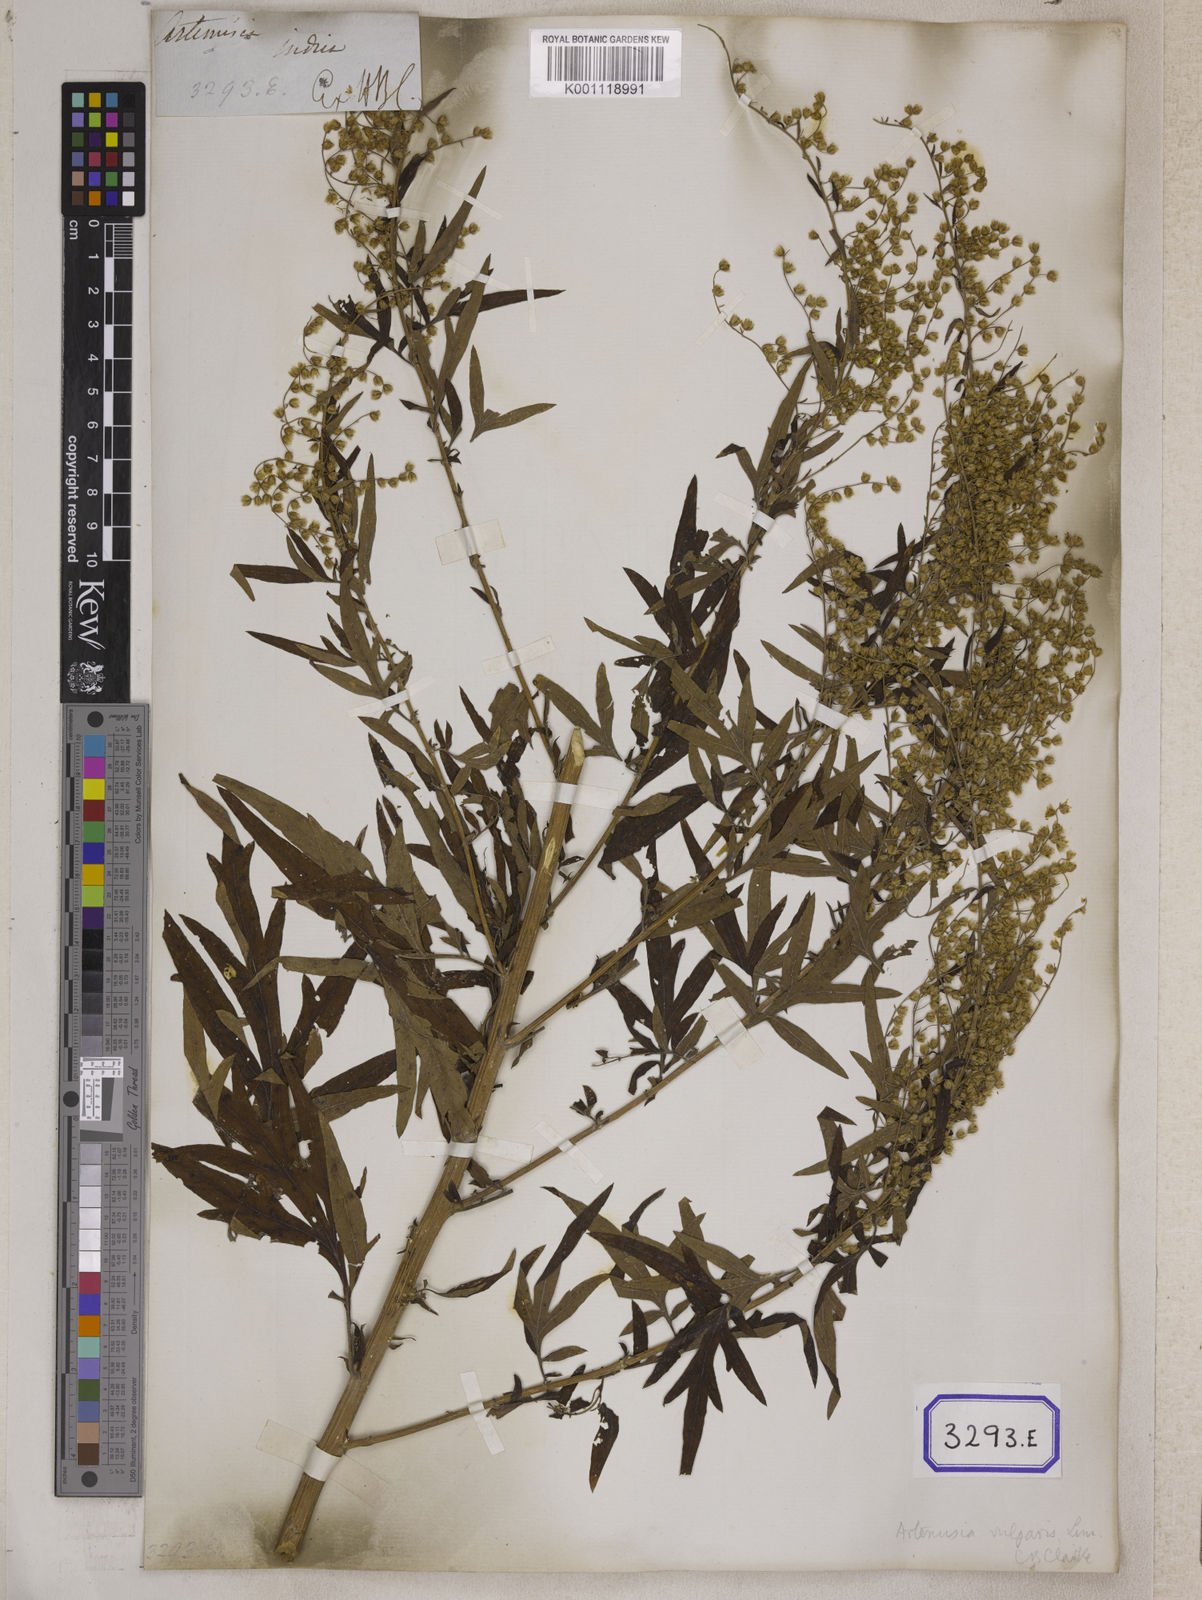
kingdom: Plantae
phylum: Tracheophyta
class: Magnoliopsida
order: Asterales
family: Asteraceae
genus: Artemisia
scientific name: Artemisia indica
